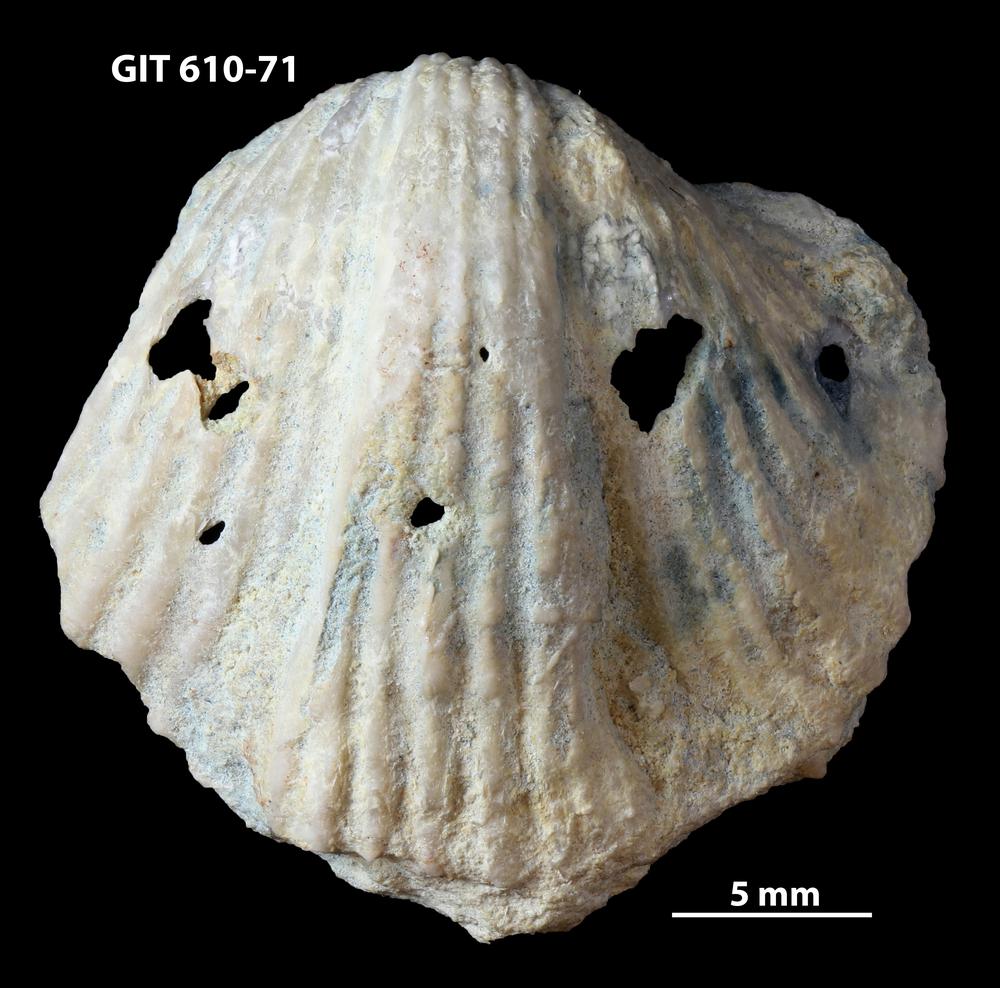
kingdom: Animalia
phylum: Brachiopoda
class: Rhynchonellata
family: Triplesiidae
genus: Ogmoplecia
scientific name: Ogmoplecia
